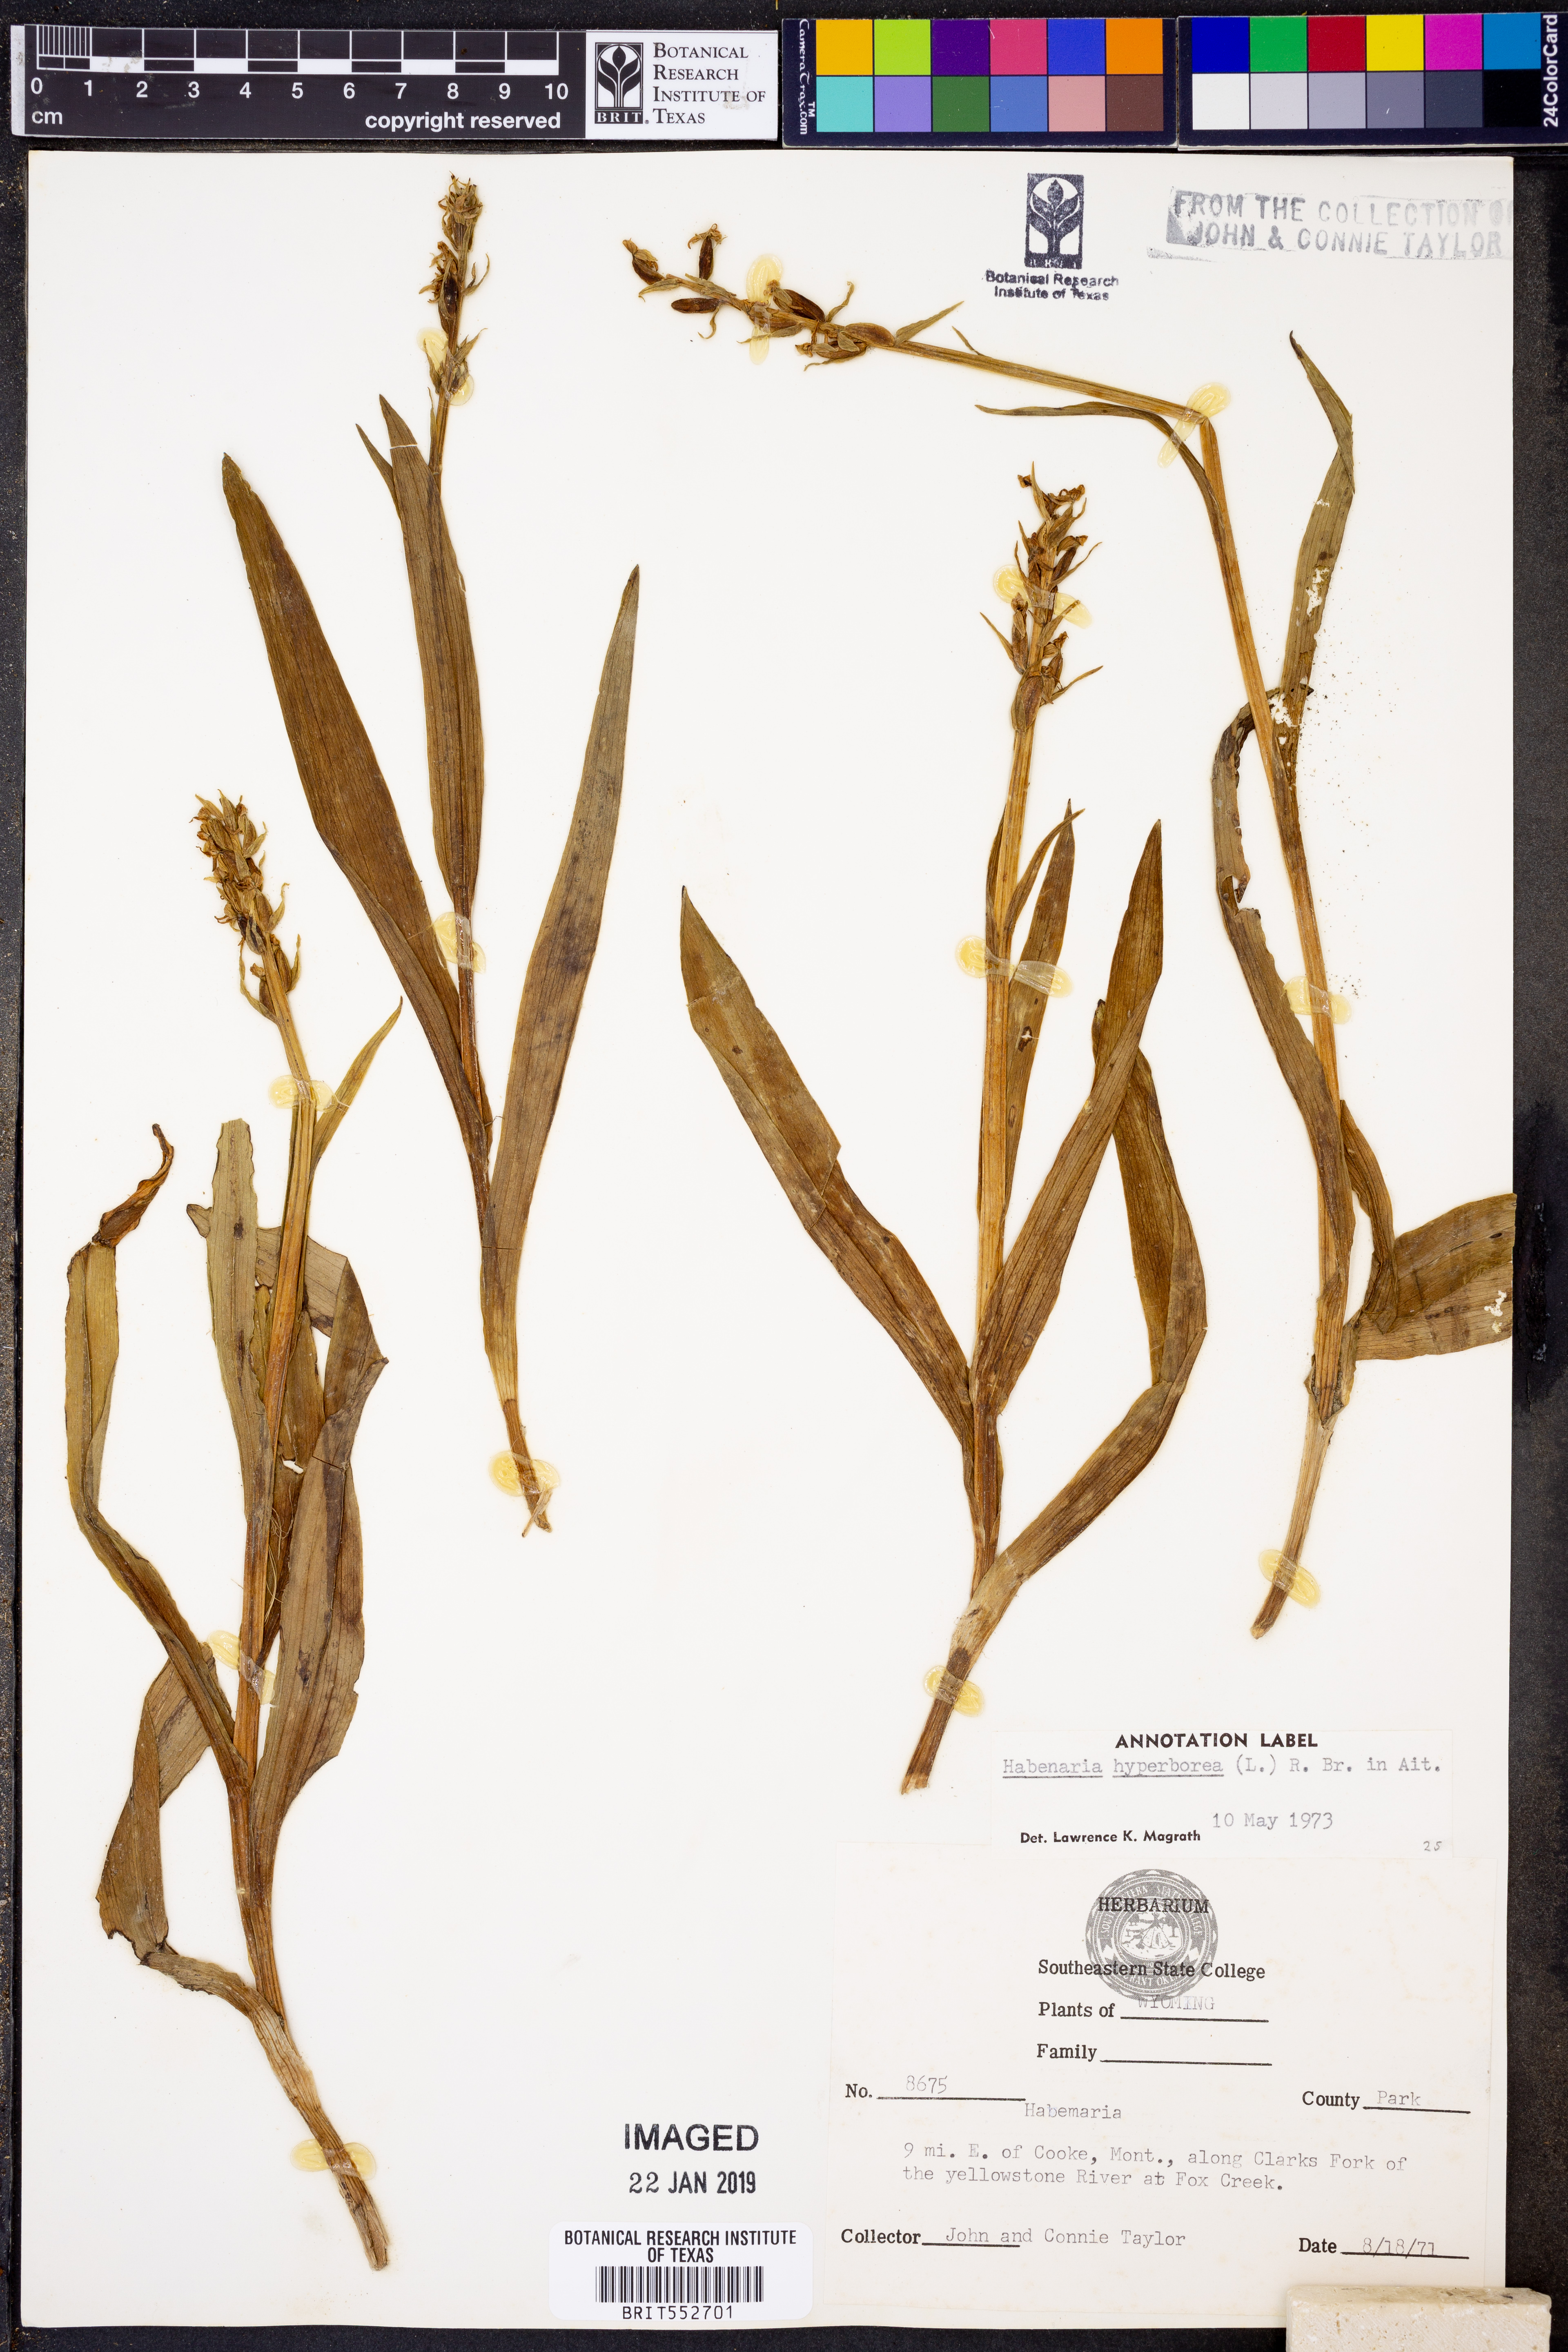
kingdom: Plantae
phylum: Tracheophyta
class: Liliopsida
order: Asparagales
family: Orchidaceae
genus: Platanthera
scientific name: Platanthera hyperborea
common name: Northern green orchid
